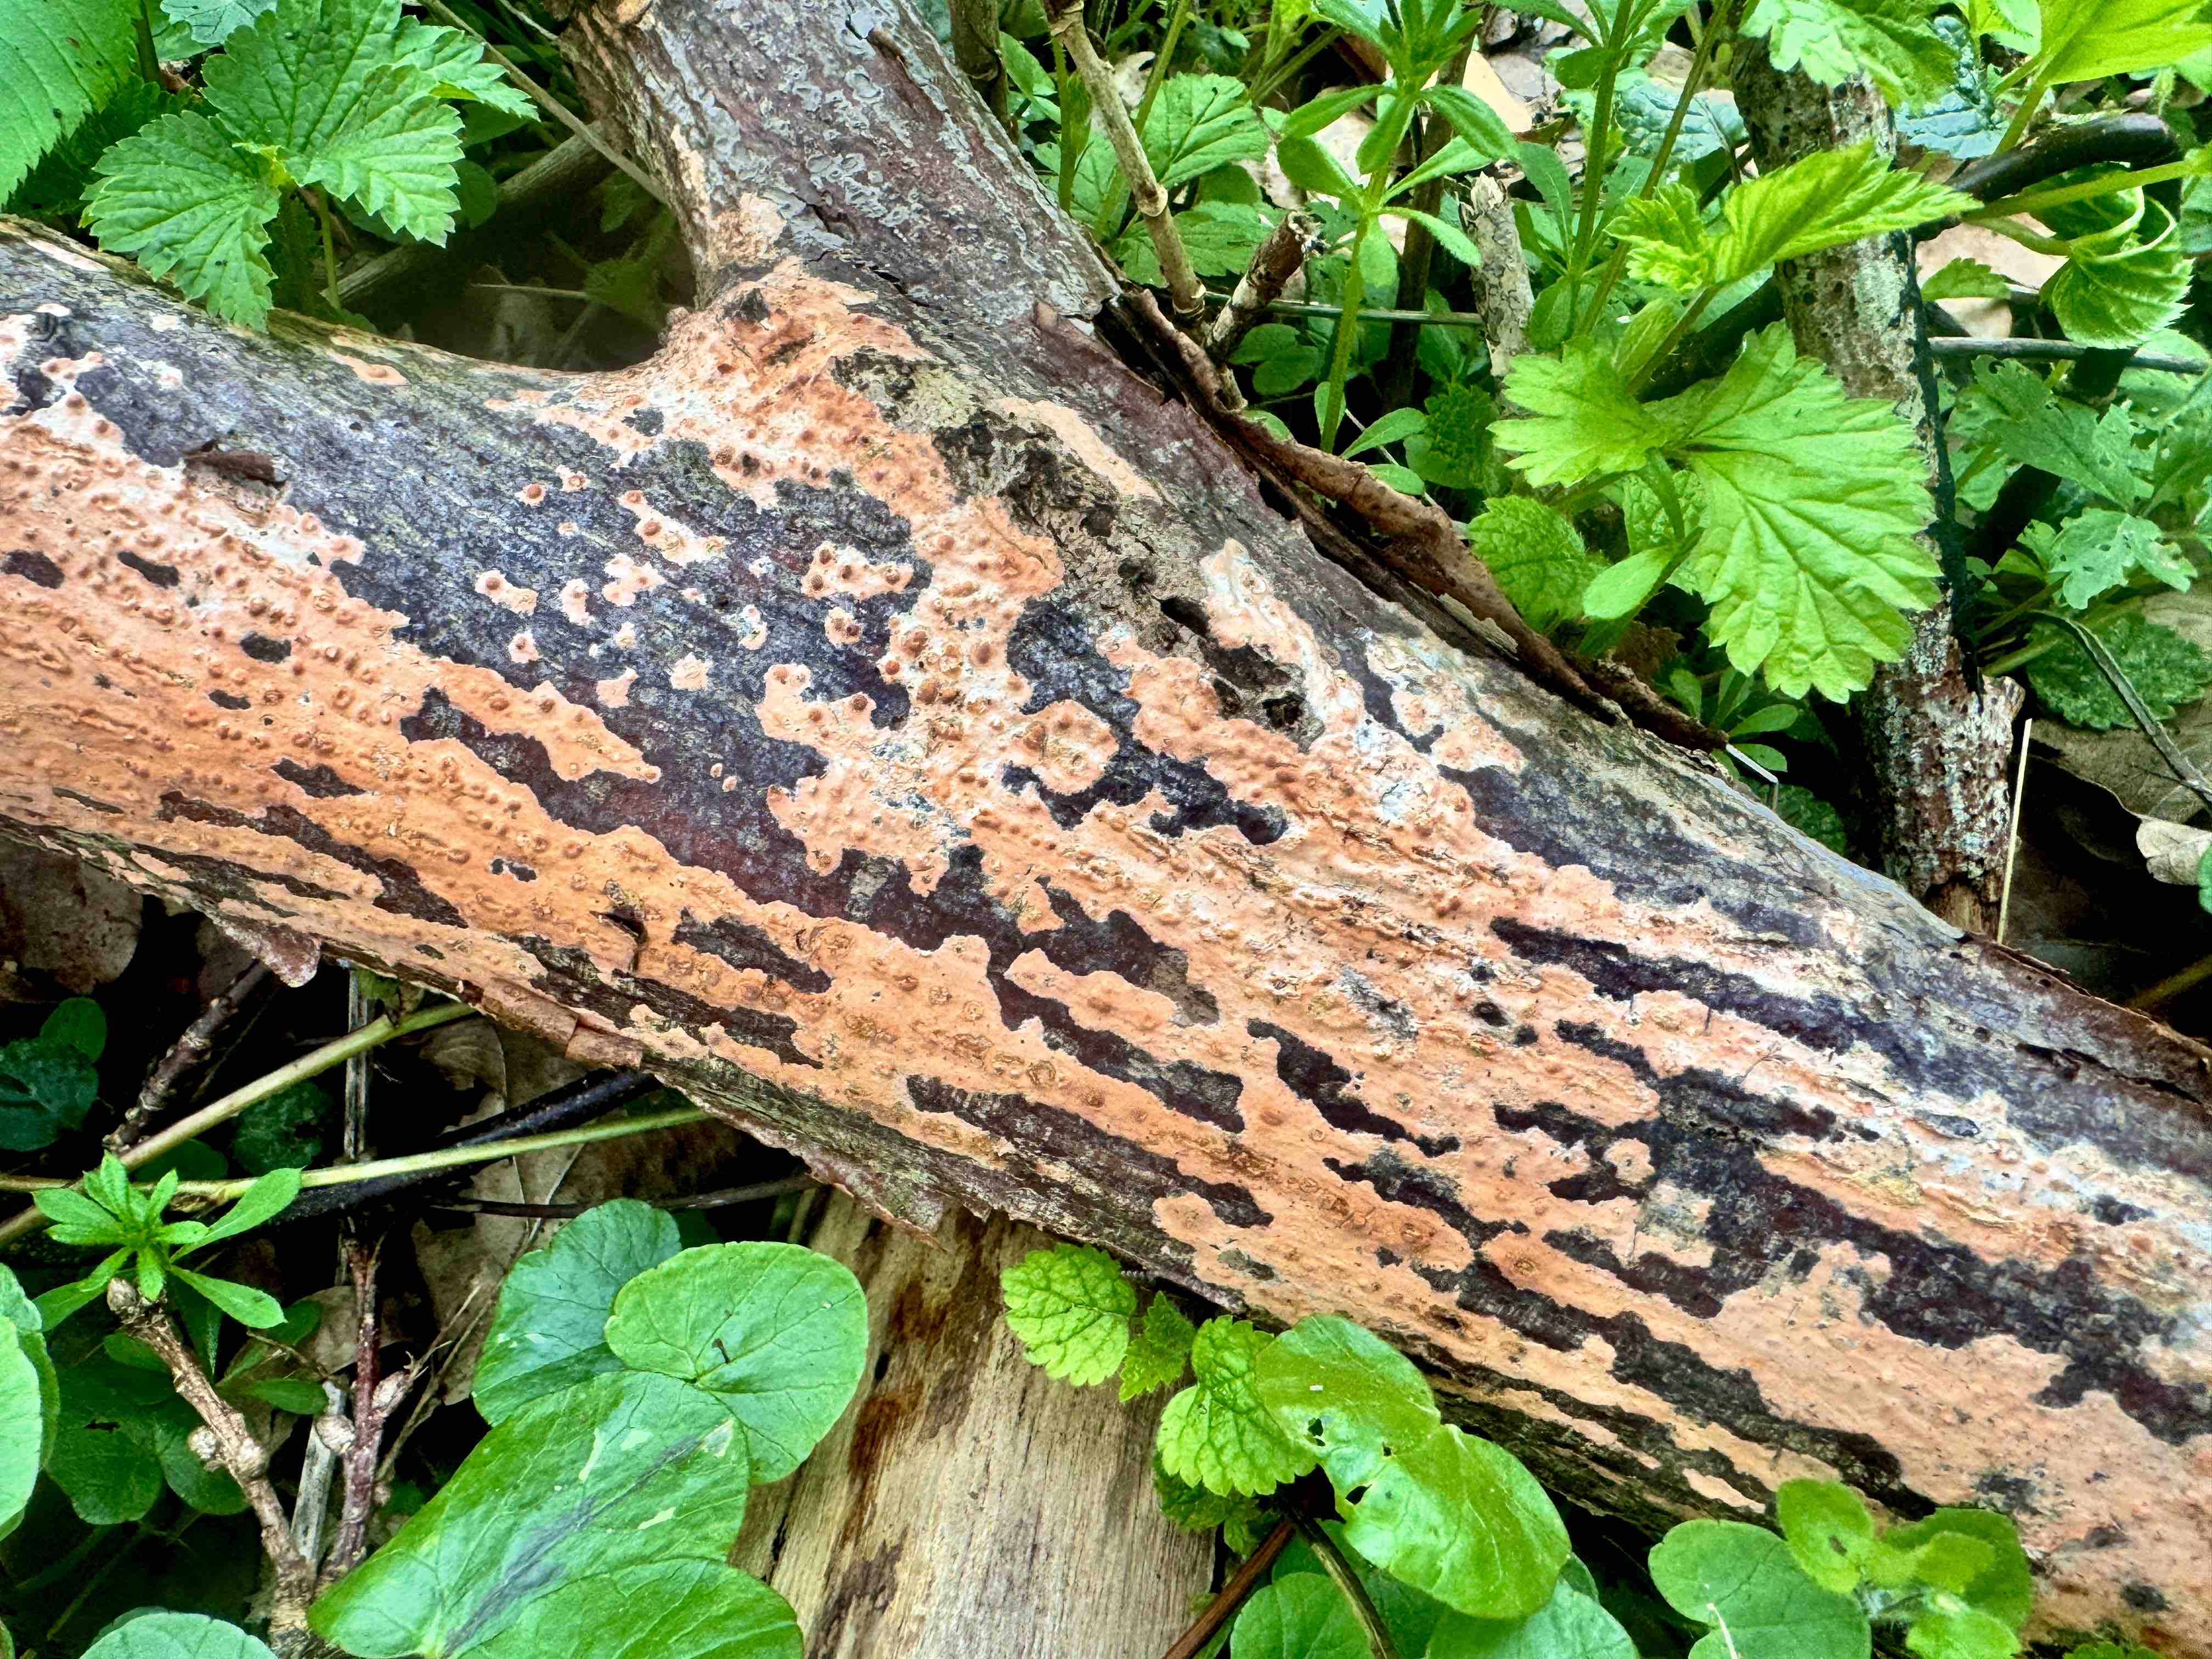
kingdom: Fungi
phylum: Basidiomycota
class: Agaricomycetes
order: Russulales
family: Peniophoraceae
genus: Peniophora
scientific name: Peniophora incarnata
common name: laksefarvet voksskind
